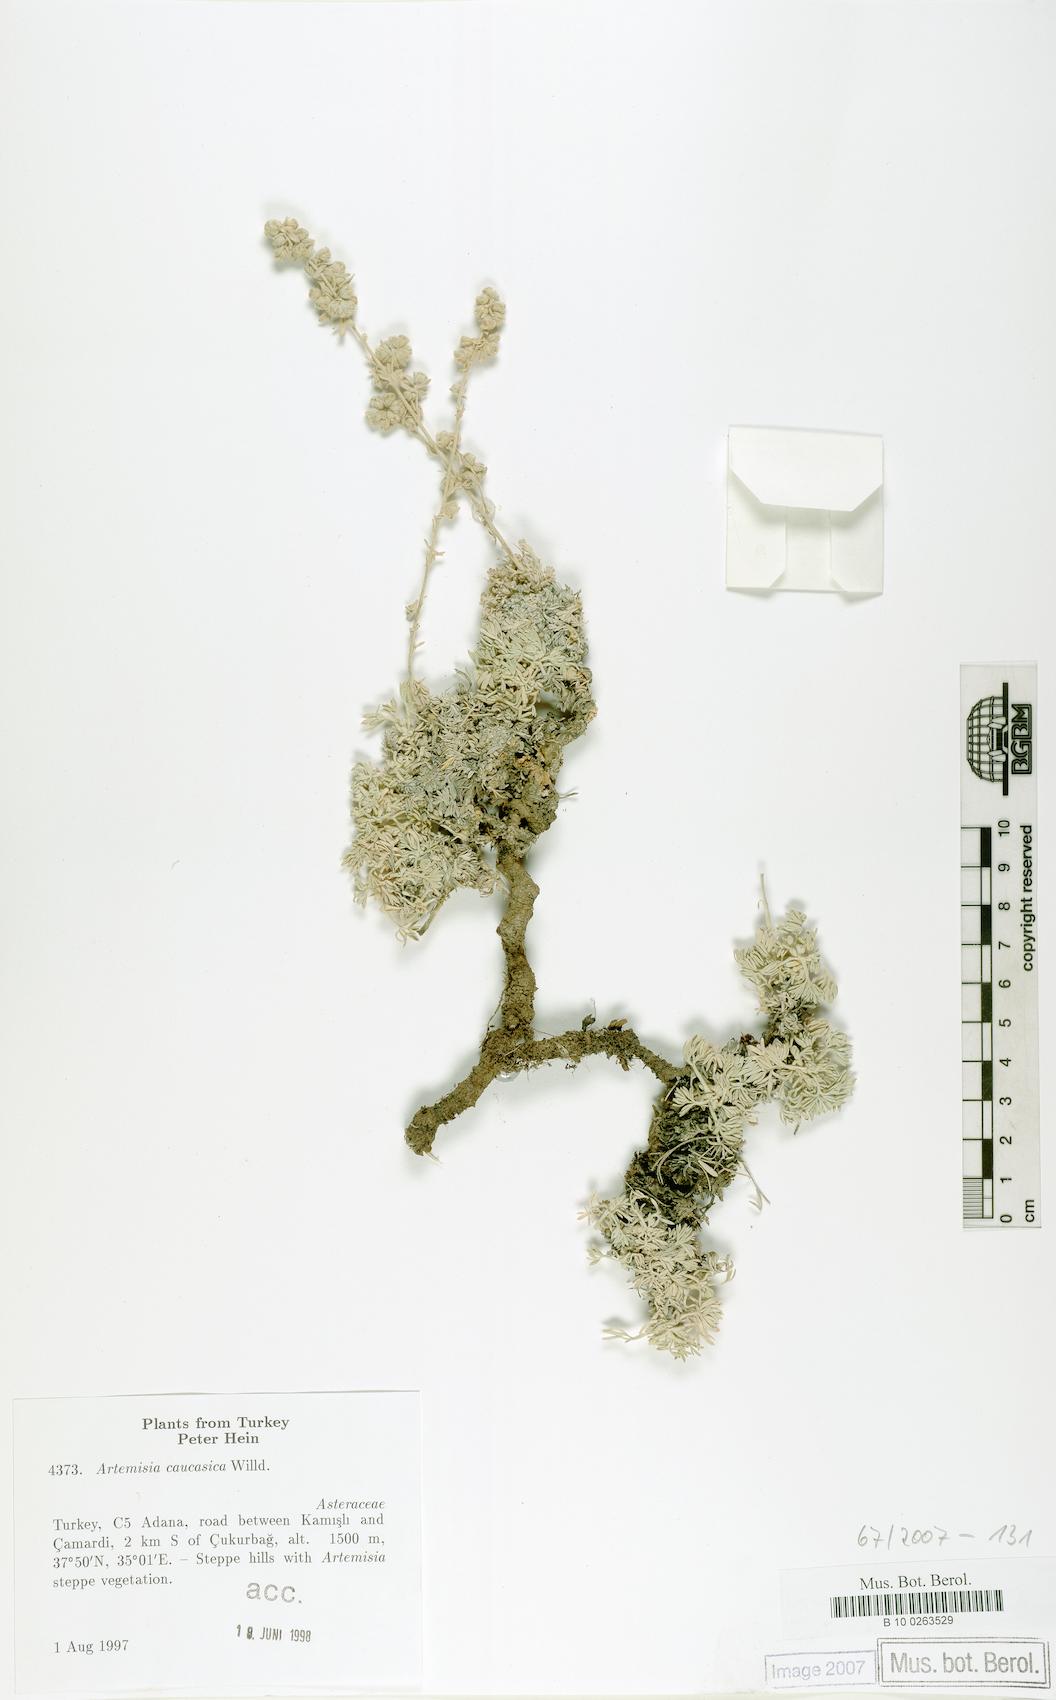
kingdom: Plantae
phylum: Tracheophyta
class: Magnoliopsida
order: Asterales
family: Asteraceae
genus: Artemisia
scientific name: Artemisia alpina
